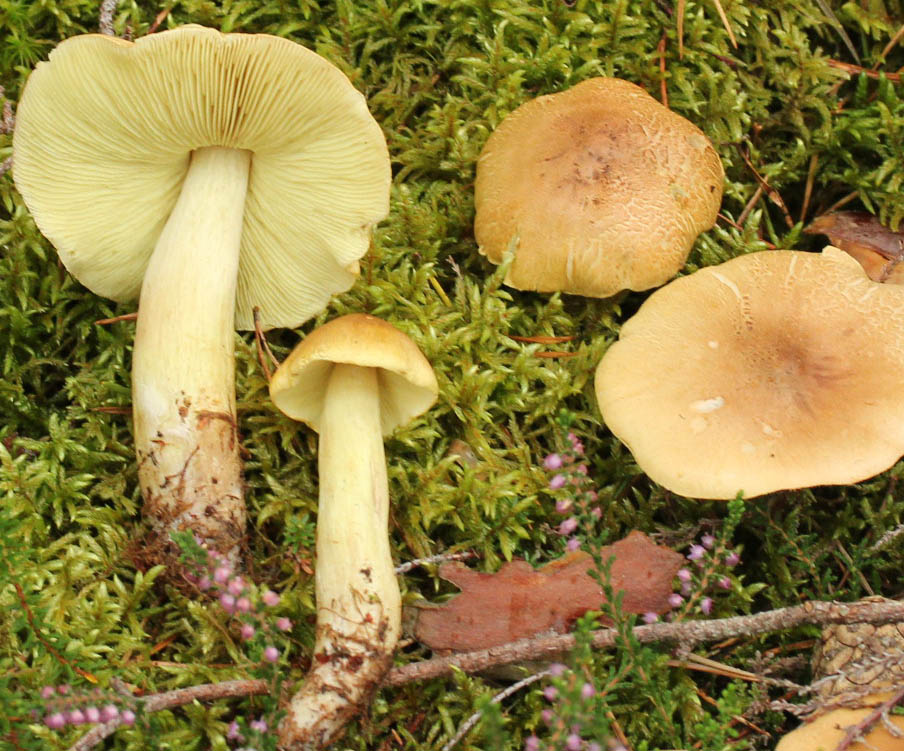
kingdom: Fungi
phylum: Basidiomycota
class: Agaricomycetes
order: Agaricales
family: Tricholomataceae
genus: Tricholoma
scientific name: Tricholoma aestuans
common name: kegle-ridderhat
